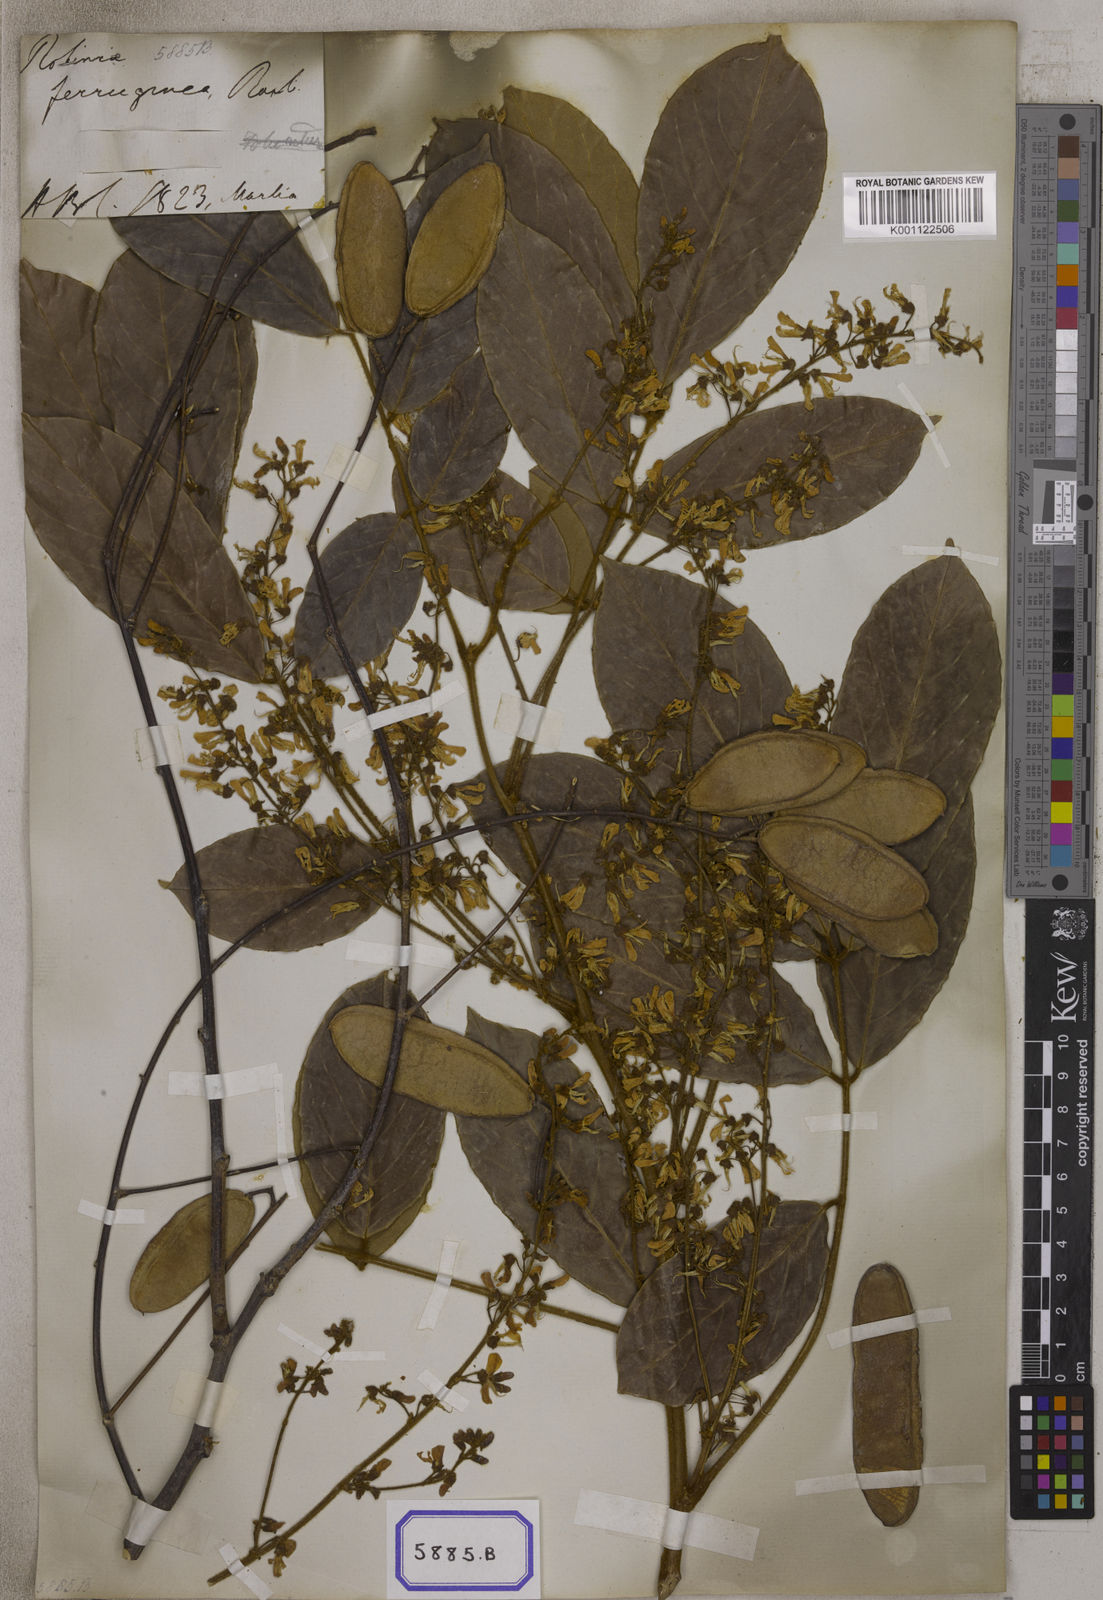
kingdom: Plantae
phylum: Tracheophyta
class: Magnoliopsida
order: Fabales
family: Fabaceae
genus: Derris
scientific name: Derris ferruginea
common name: Indian tubaroot
